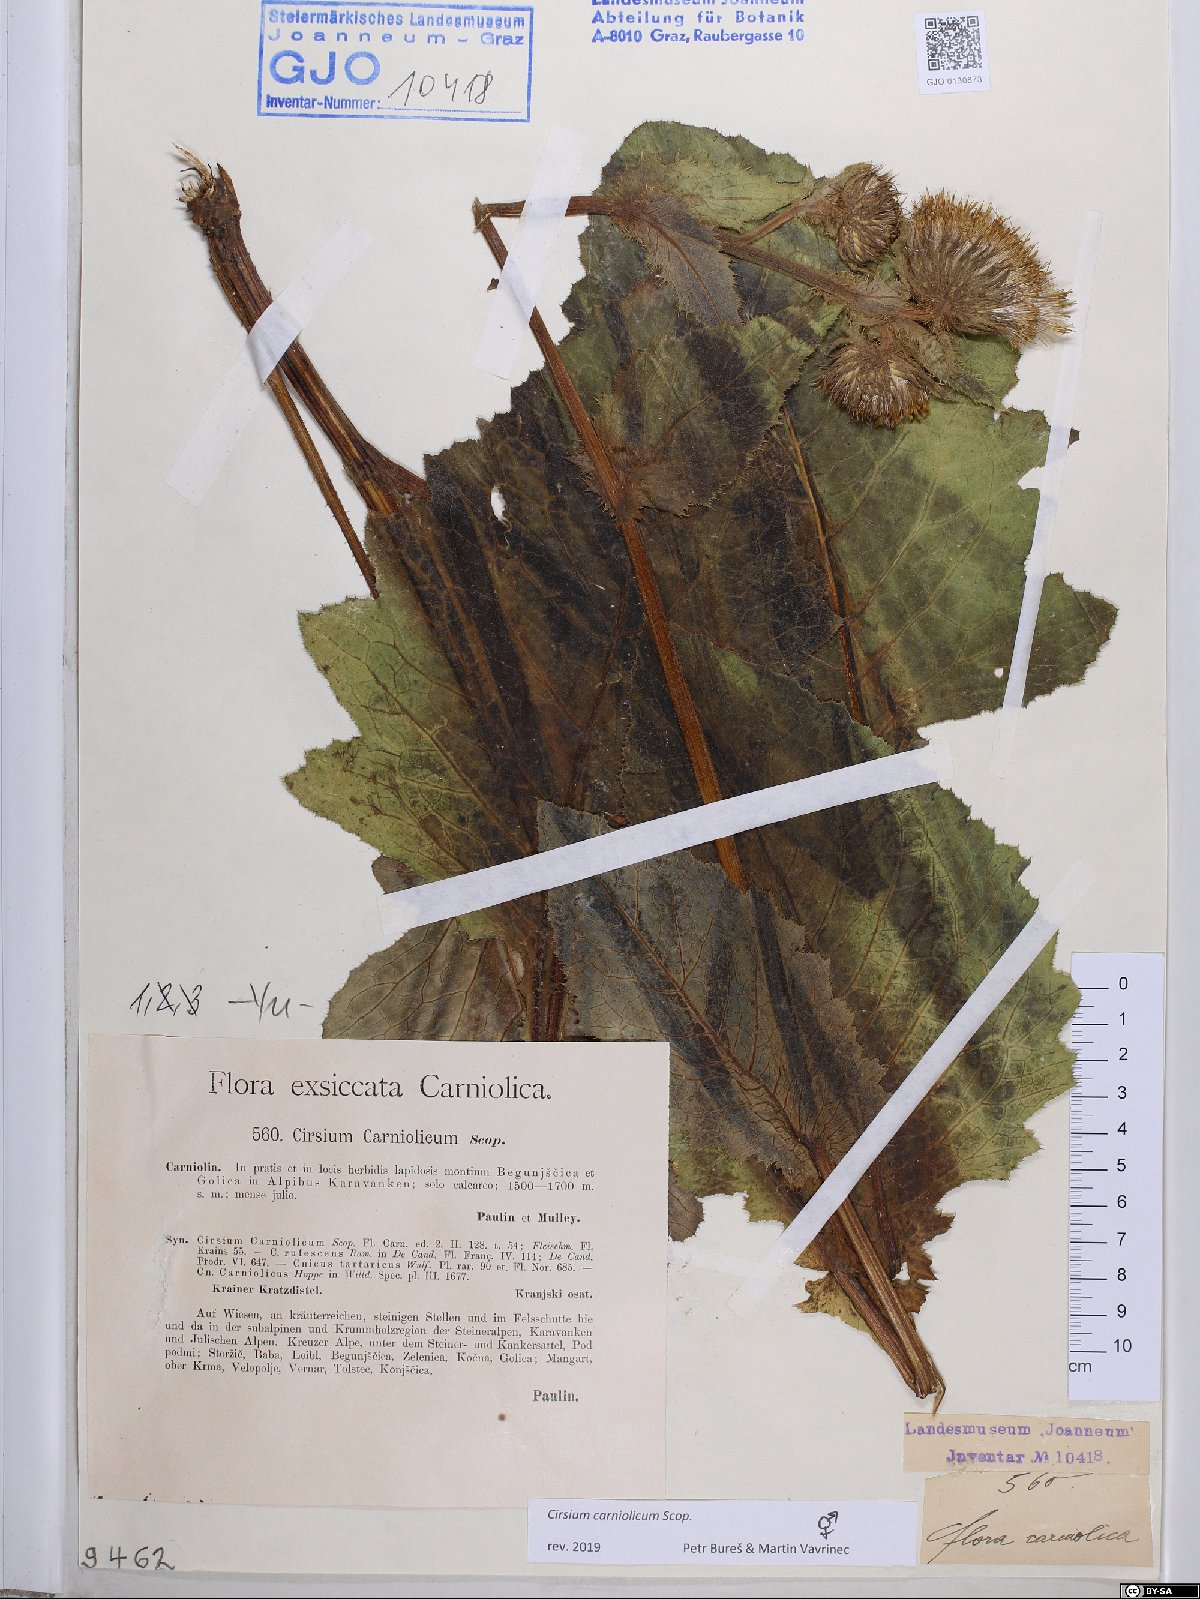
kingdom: Plantae
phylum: Tracheophyta
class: Magnoliopsida
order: Asterales
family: Asteraceae
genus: Cirsium
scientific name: Cirsium carniolicum
